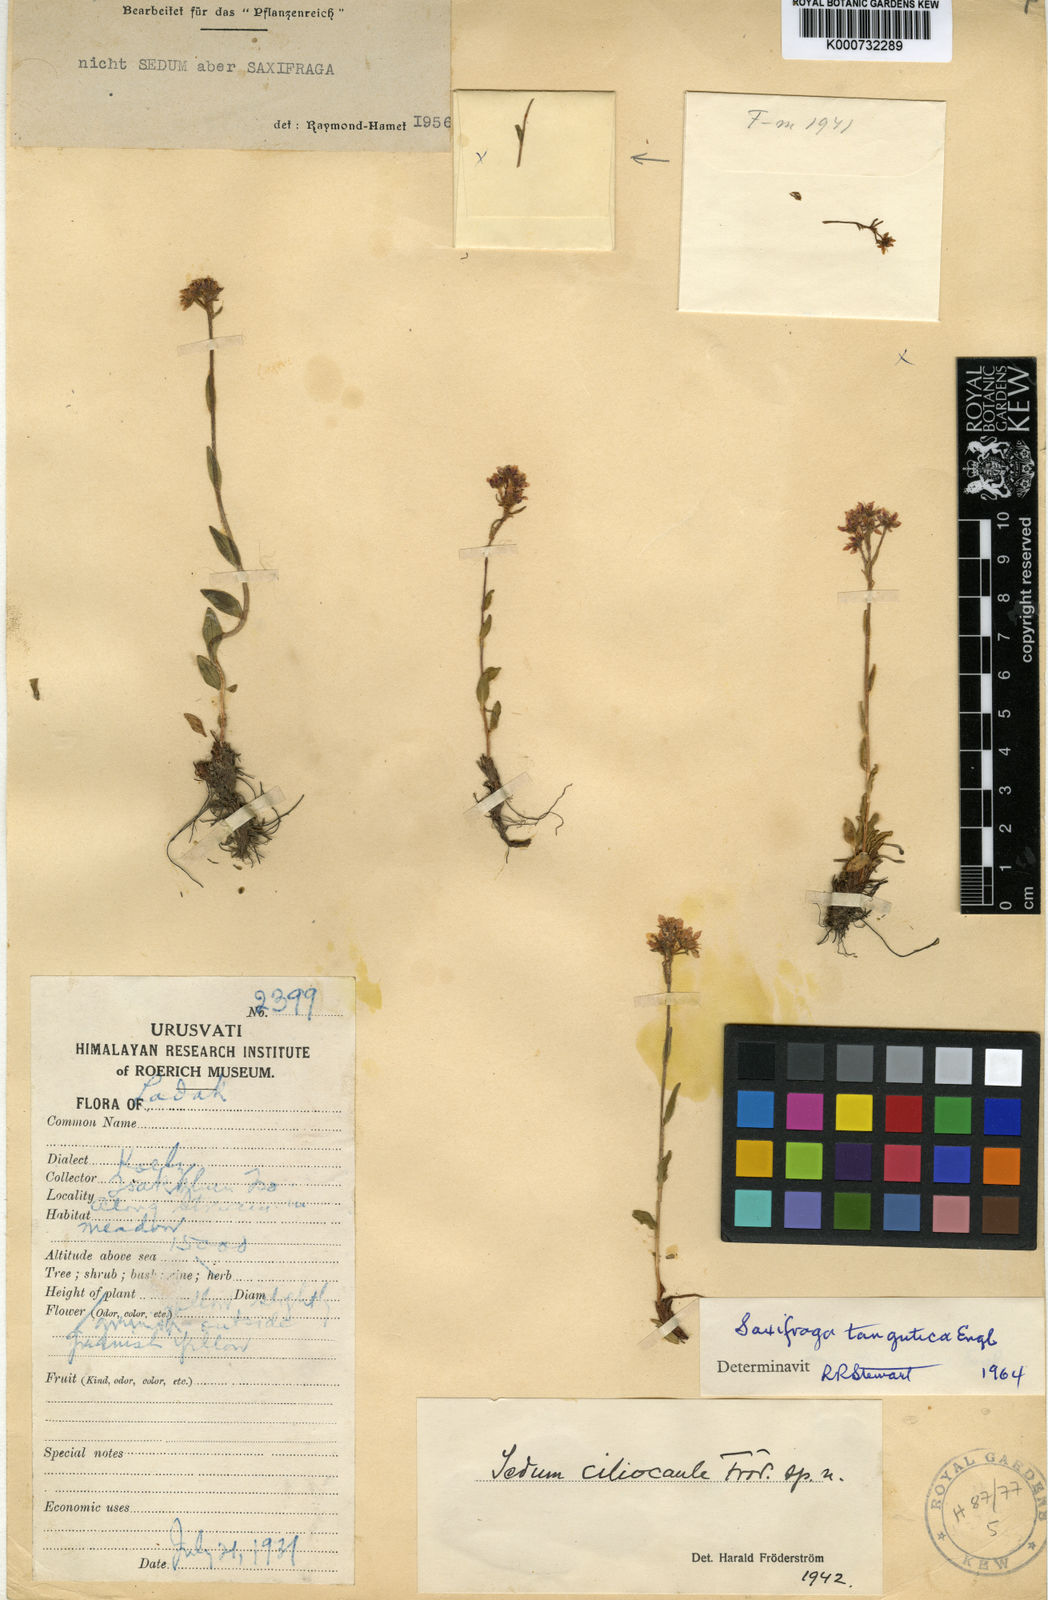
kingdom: Plantae
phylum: Tracheophyta
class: Magnoliopsida
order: Saxifragales
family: Saxifragaceae
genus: Saxifraga
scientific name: Saxifraga tangutica
